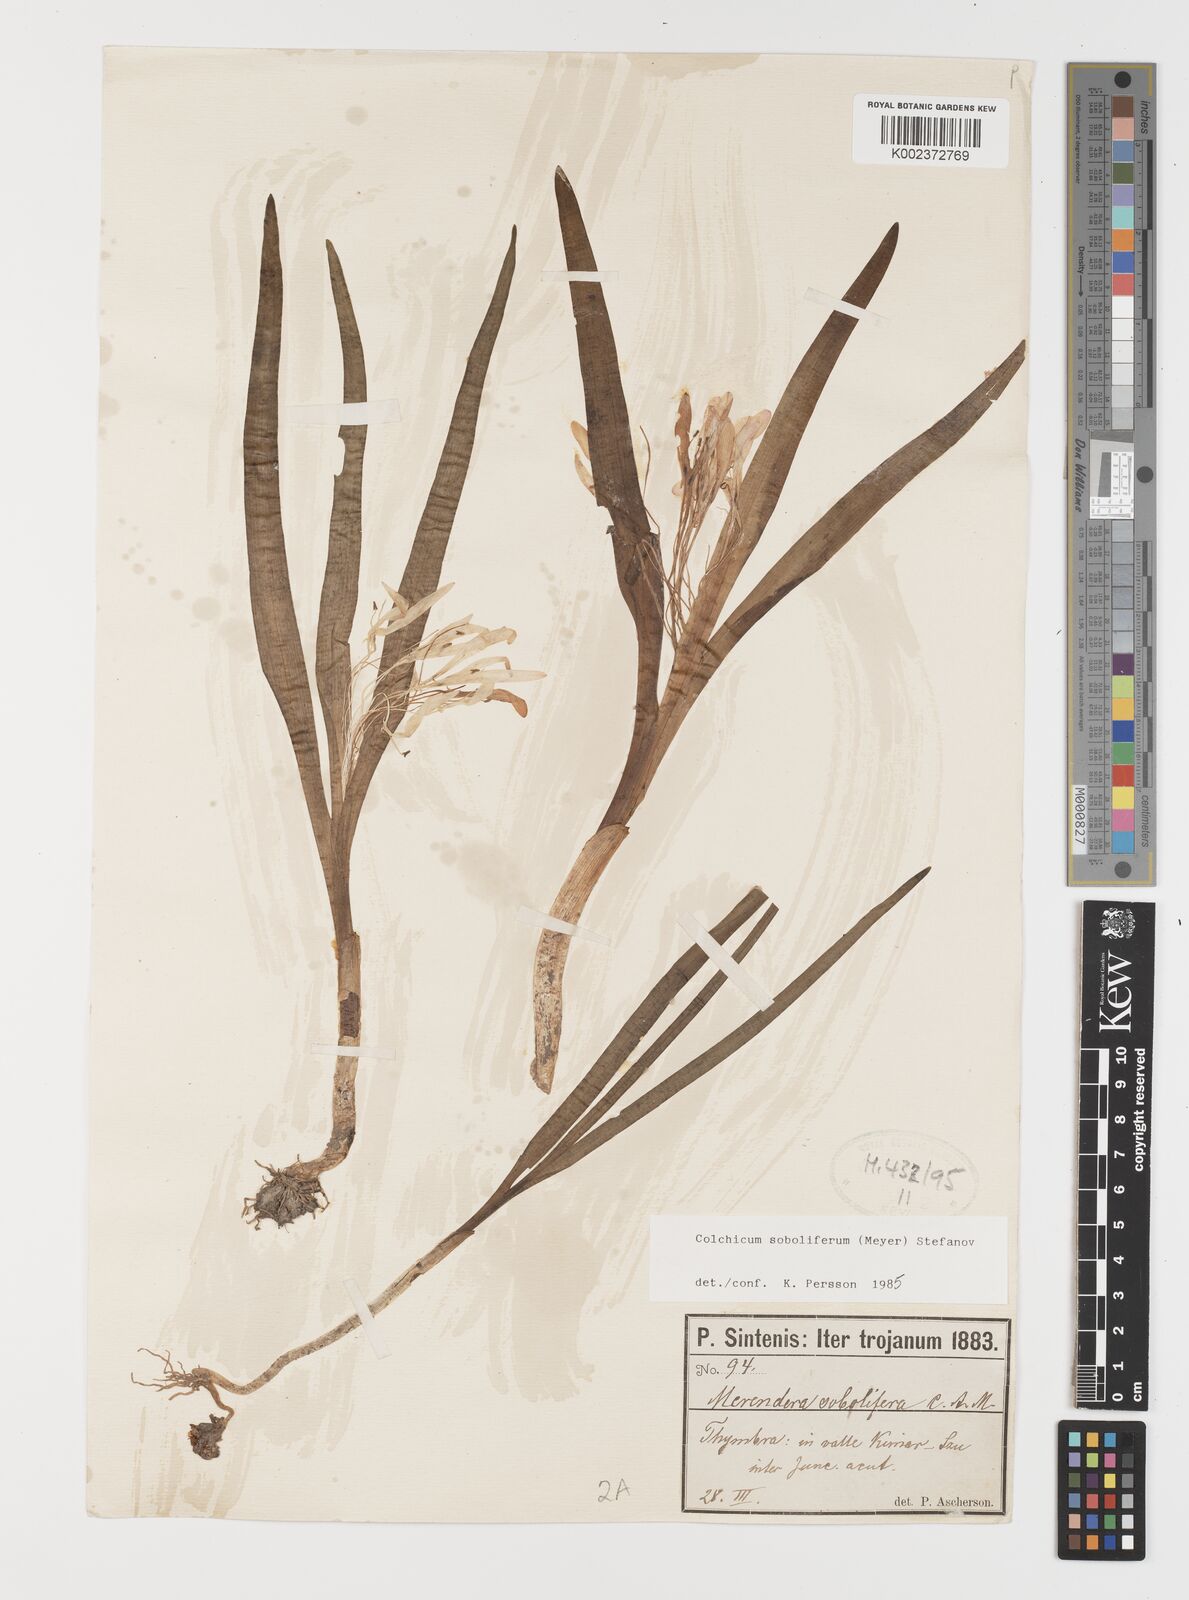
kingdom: Plantae
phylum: Tracheophyta
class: Liliopsida
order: Liliales
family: Colchicaceae
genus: Colchicum
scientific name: Colchicum soboliferum
